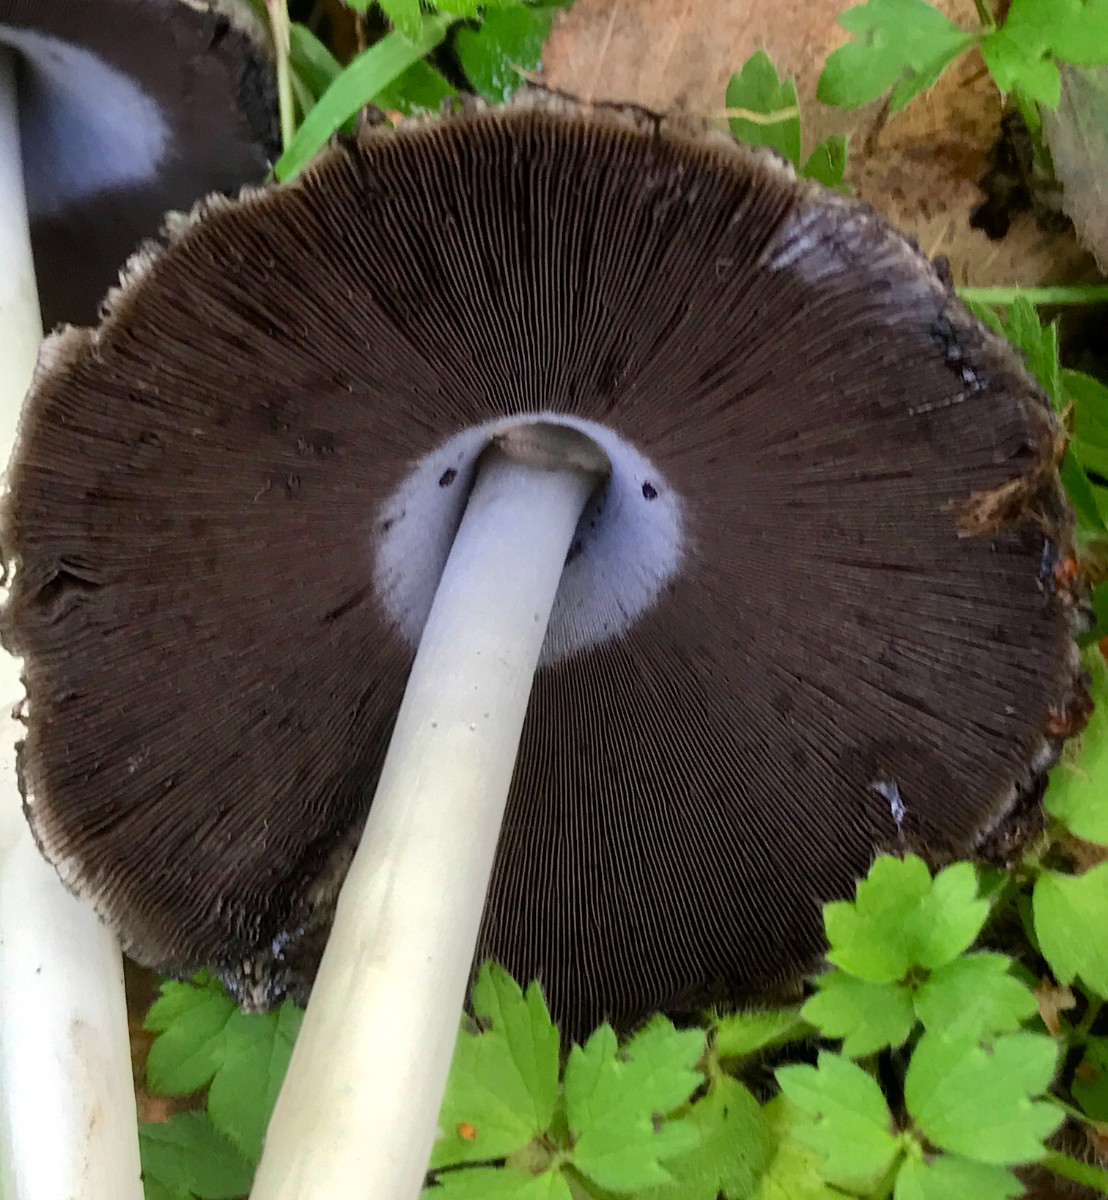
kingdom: Fungi
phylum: Basidiomycota
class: Agaricomycetes
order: Agaricales
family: Psathyrellaceae
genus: Coprinopsis
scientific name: Coprinopsis atramentaria
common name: almindelig blækhat
